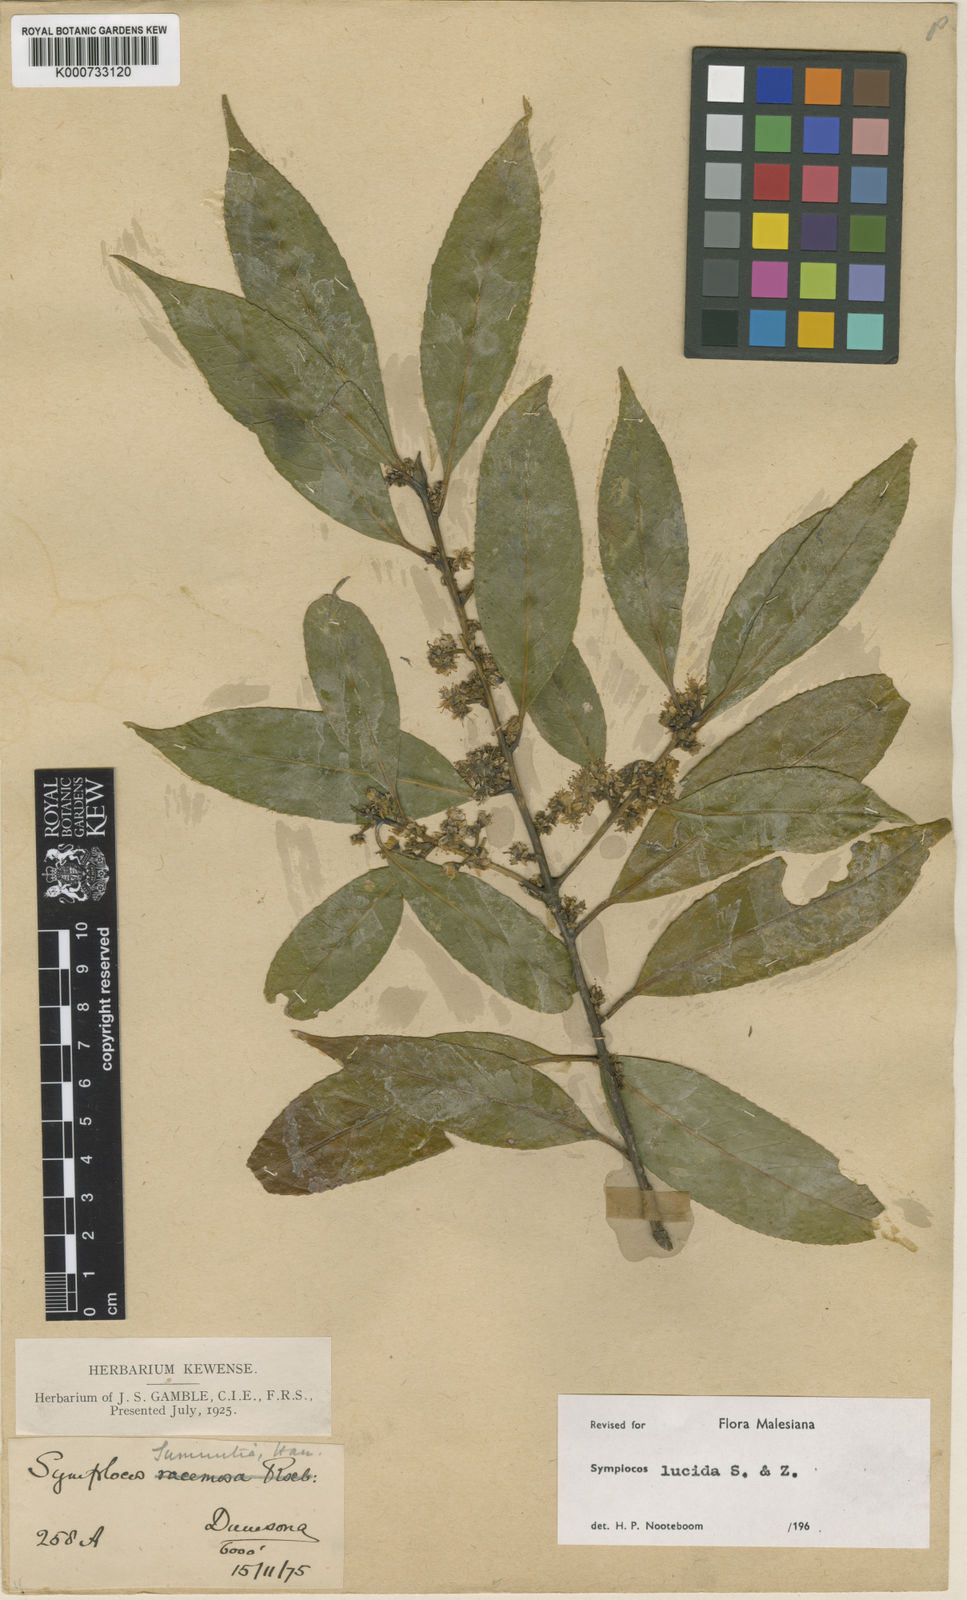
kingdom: Plantae
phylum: Tracheophyta
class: Magnoliopsida
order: Ericales
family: Symplocaceae
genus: Symplocos
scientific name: Symplocos
